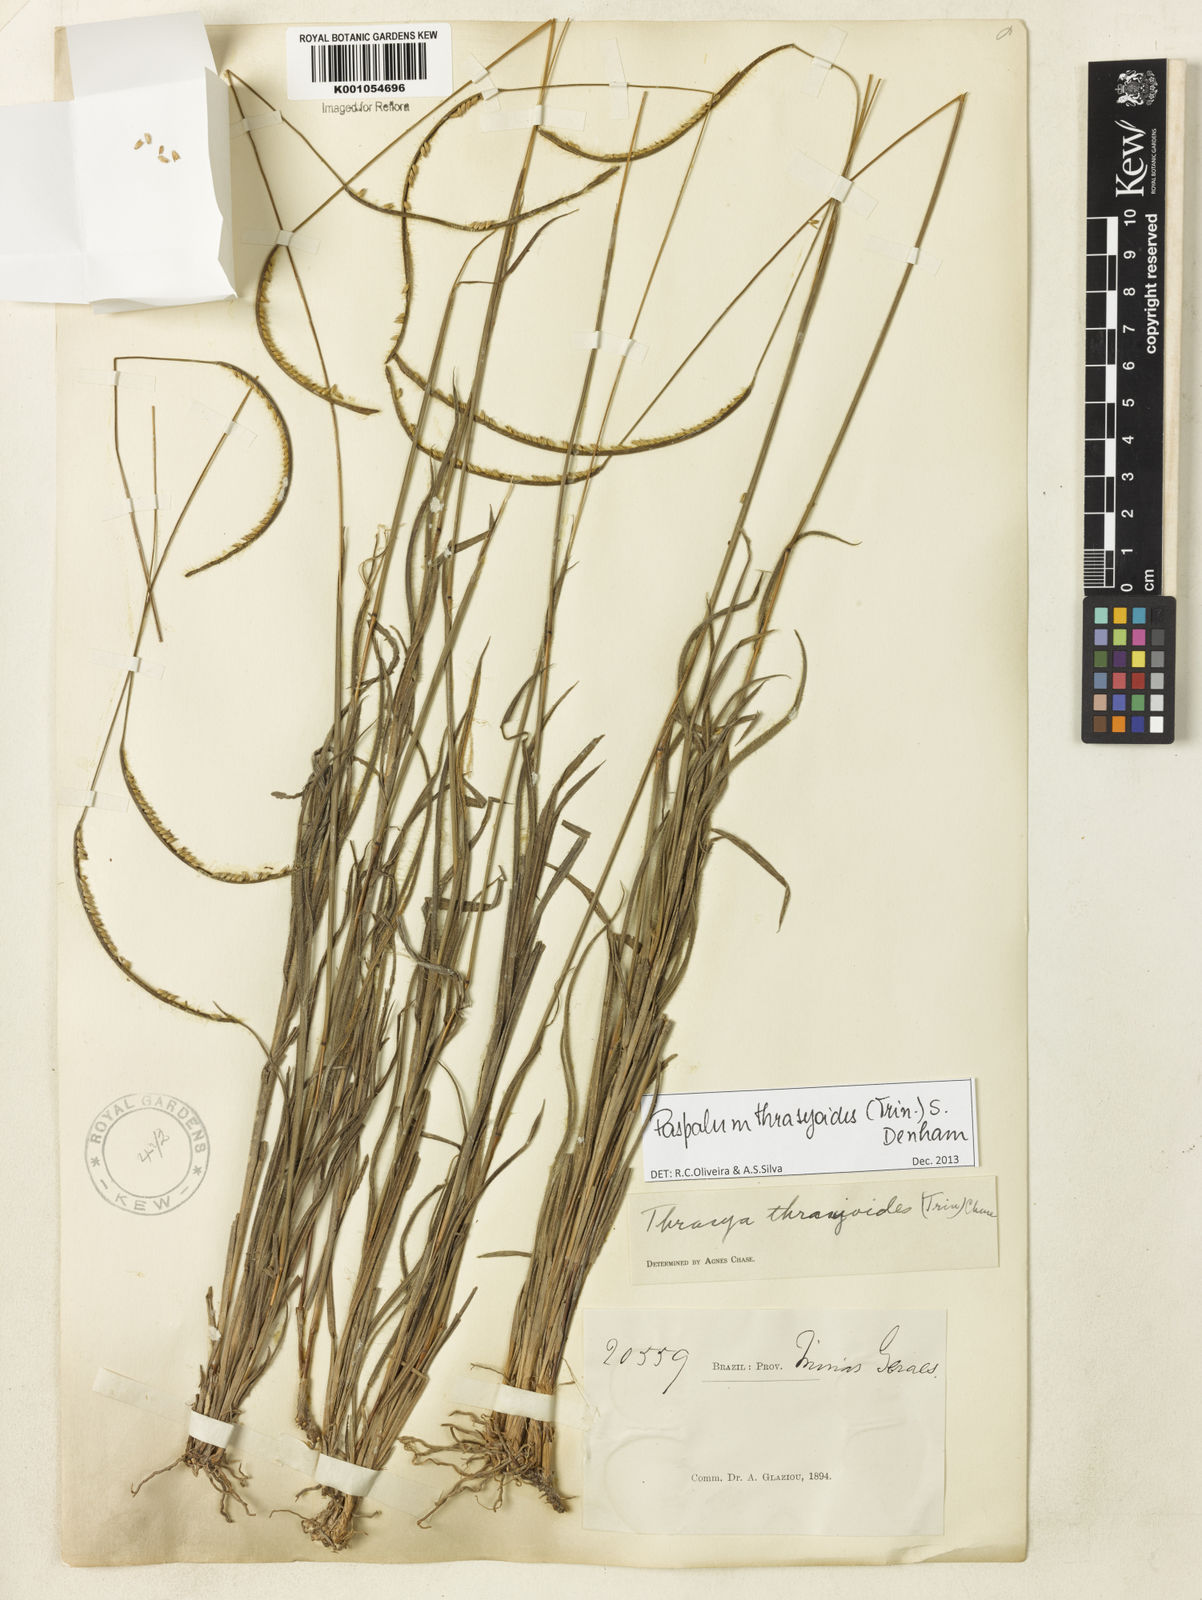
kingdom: Plantae
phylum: Tracheophyta
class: Liliopsida
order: Poales
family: Poaceae
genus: Paspalum
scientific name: Paspalum thrasyoides
